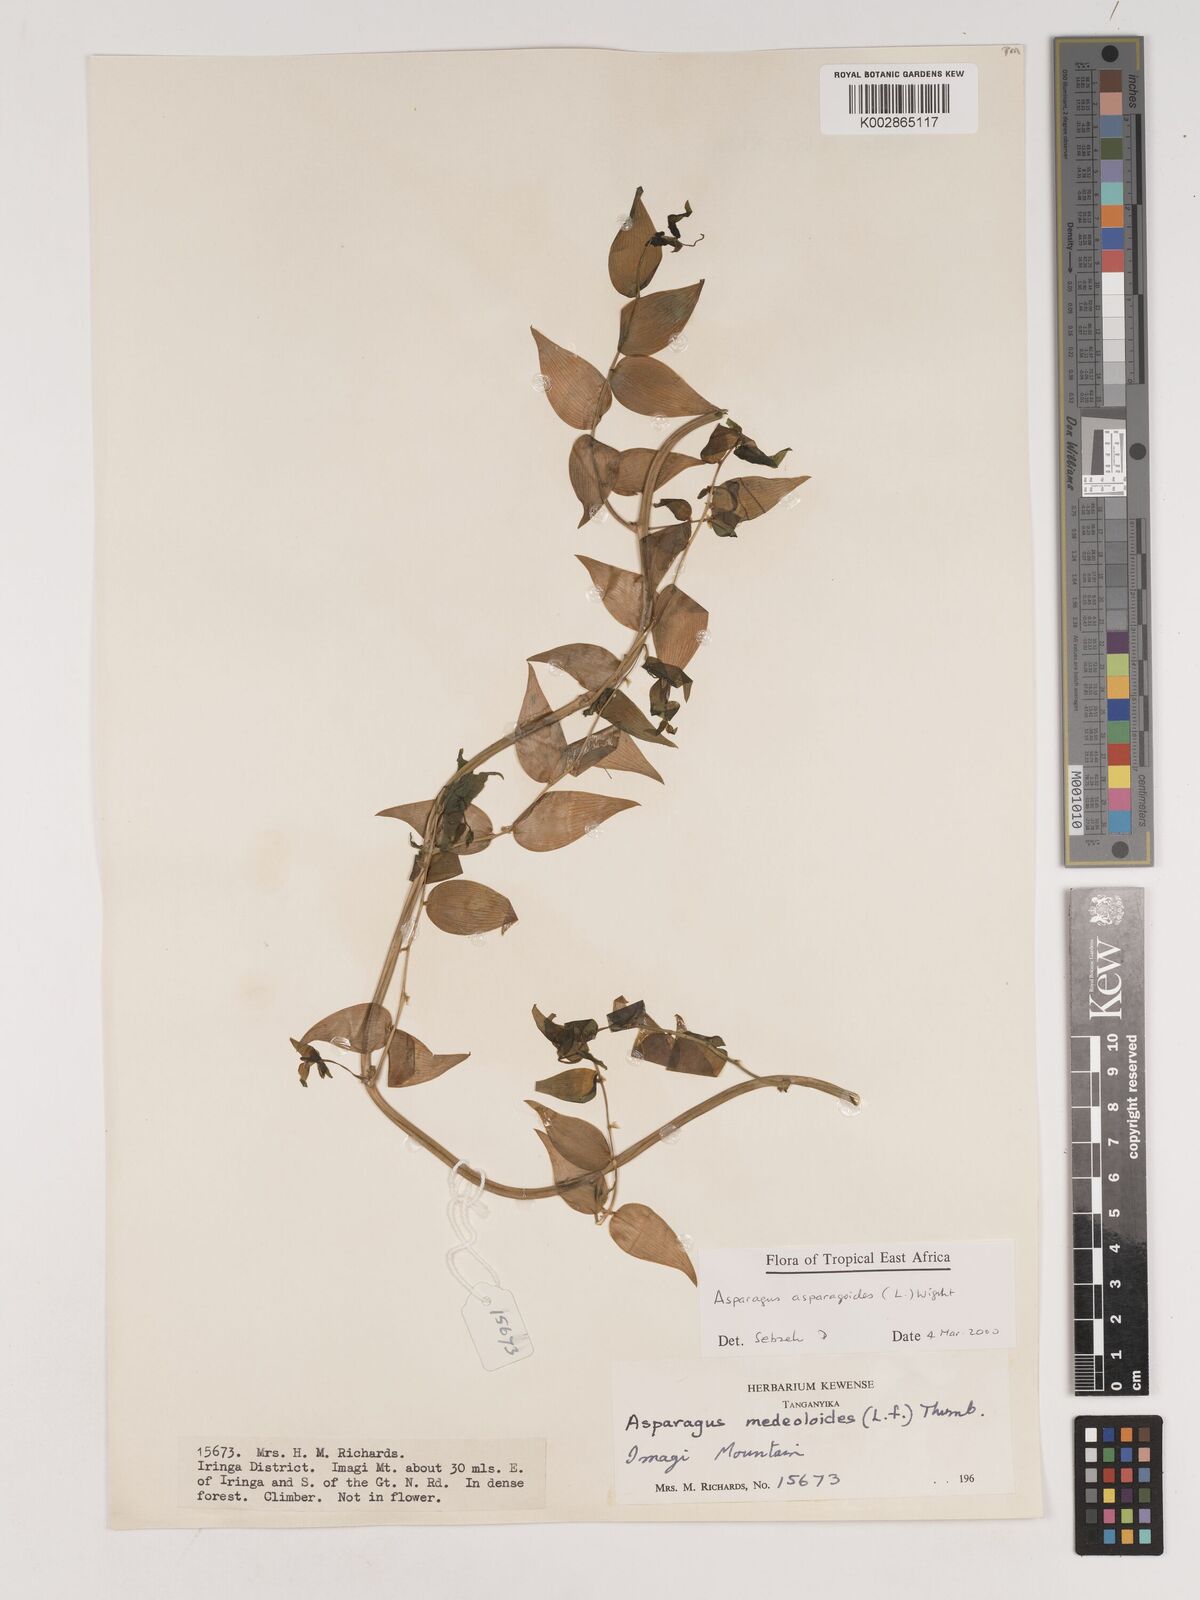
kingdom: Plantae
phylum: Tracheophyta
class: Liliopsida
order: Asparagales
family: Asparagaceae
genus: Asparagus
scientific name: Asparagus asparagoides
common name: African asparagus fern
